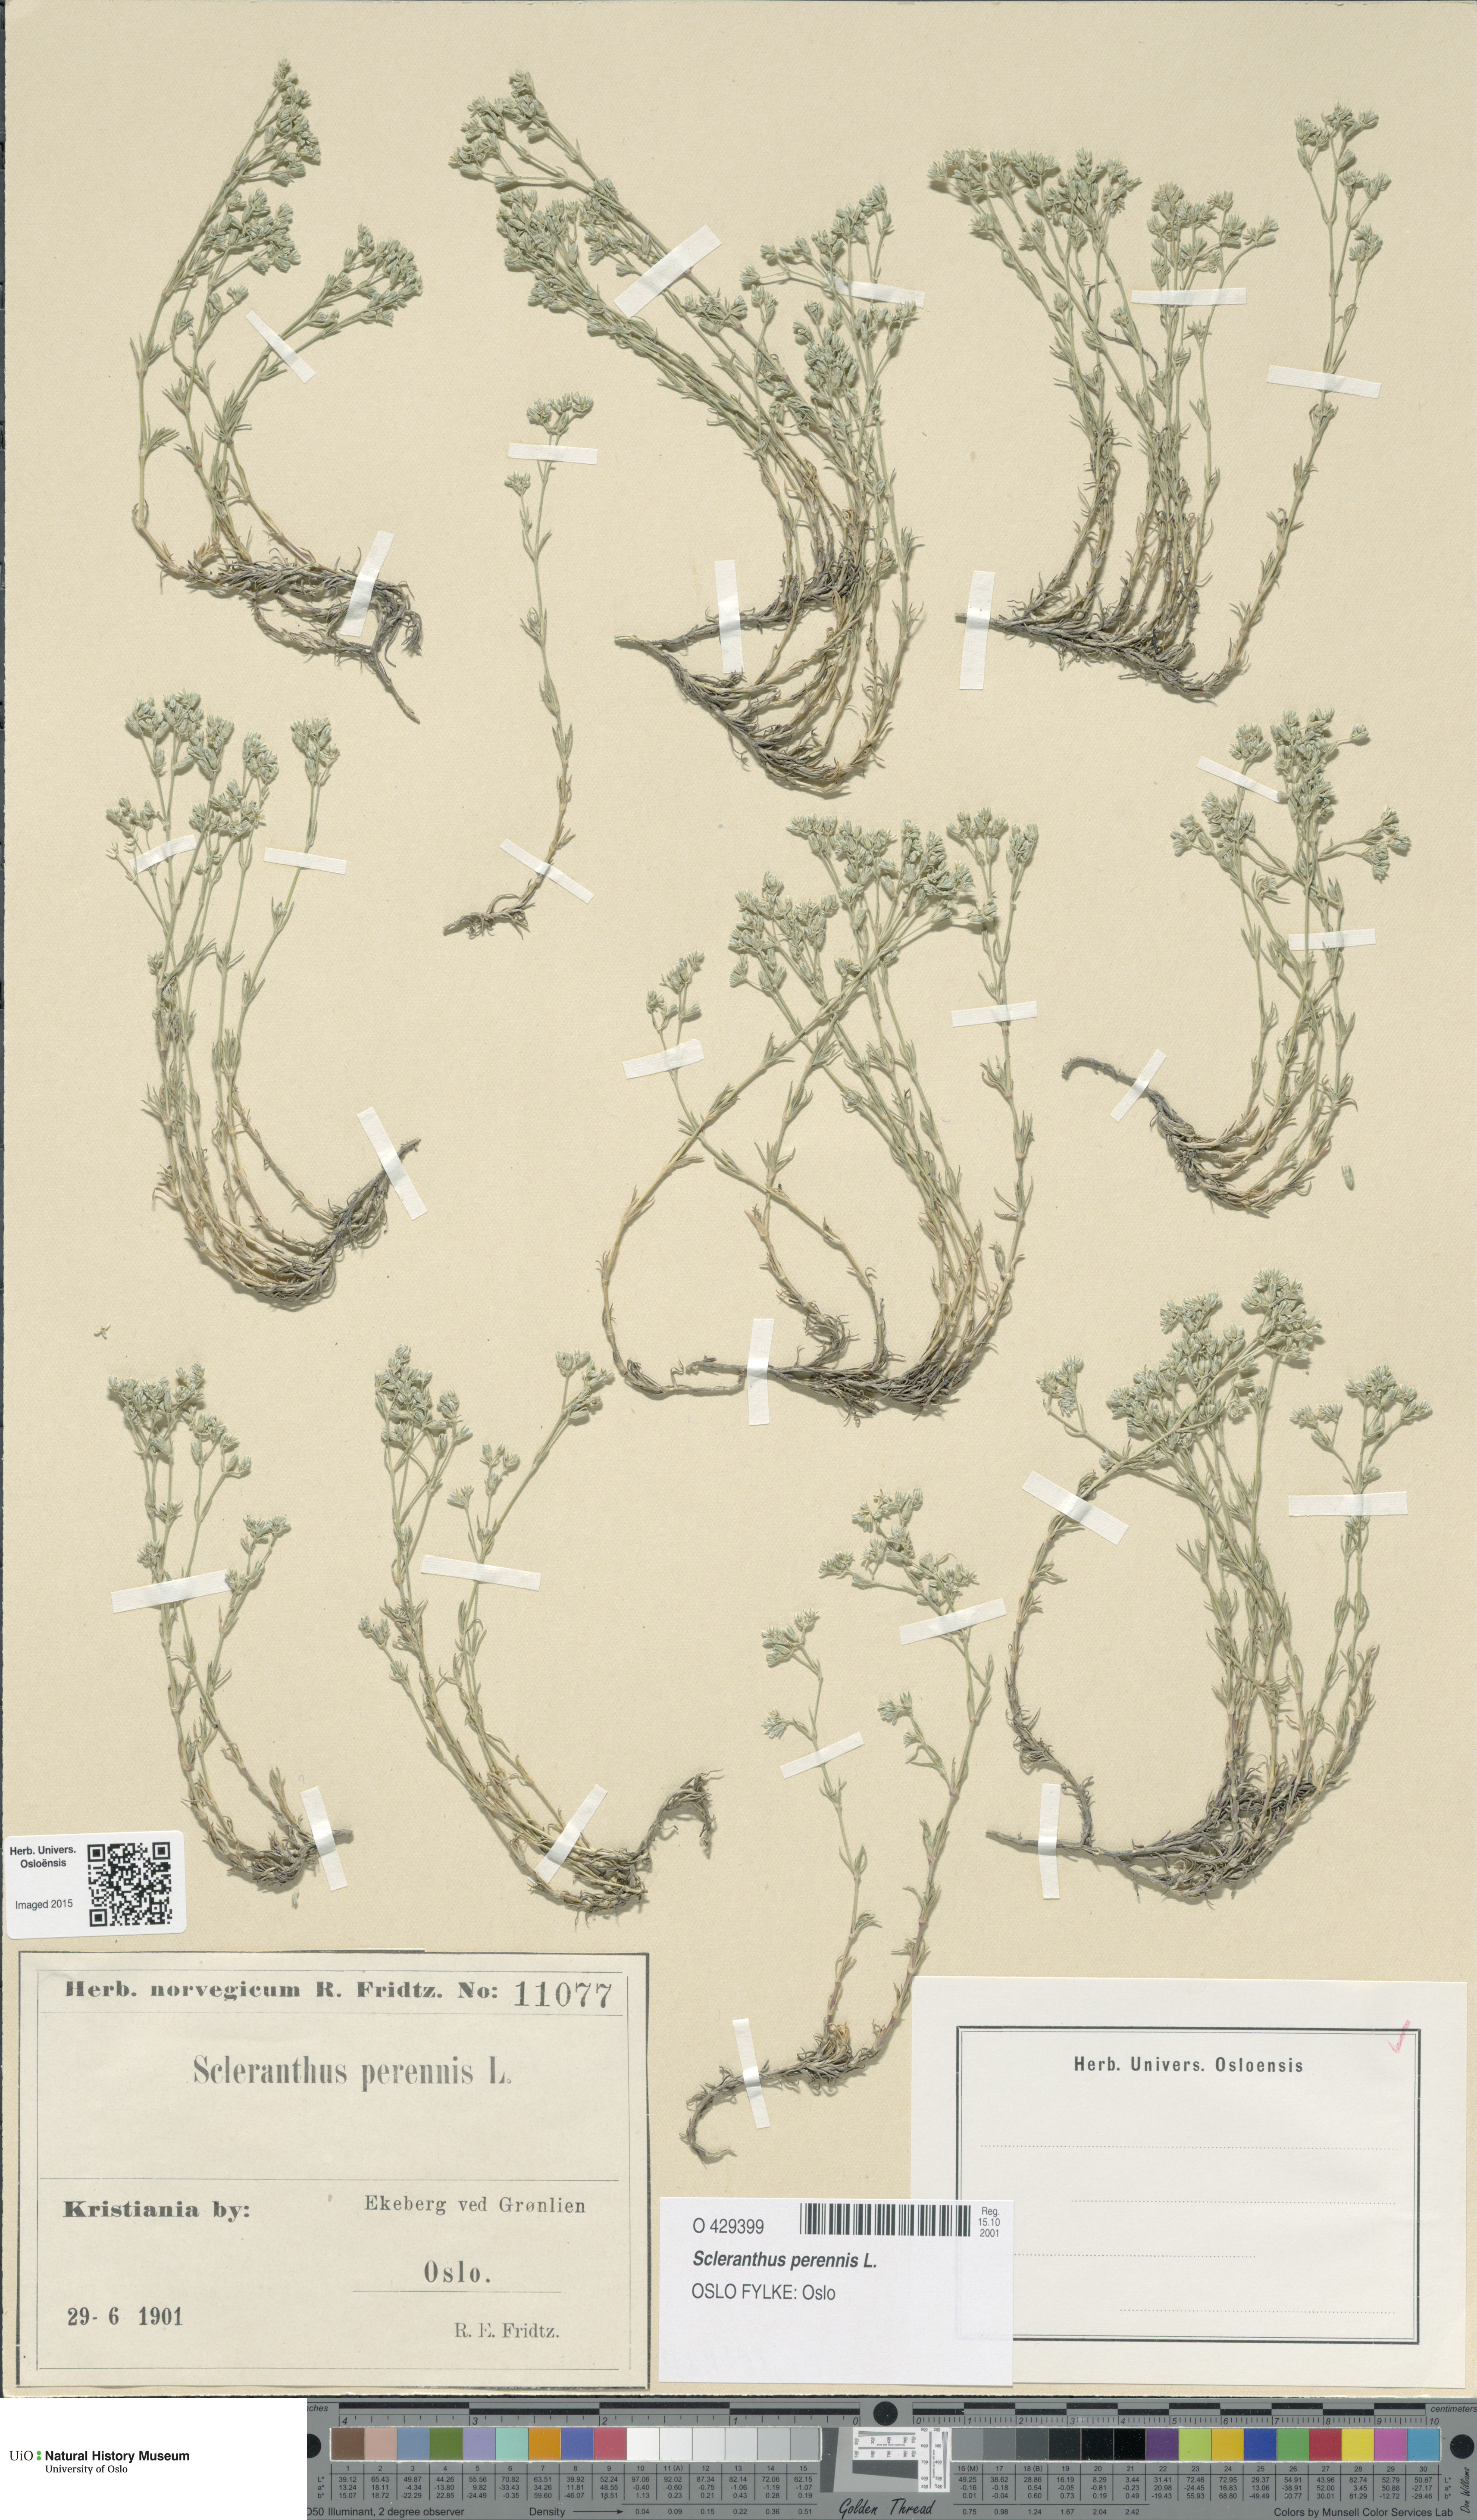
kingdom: Plantae
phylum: Tracheophyta
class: Magnoliopsida
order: Caryophyllales
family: Caryophyllaceae
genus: Scleranthus
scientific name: Scleranthus perennis
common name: Perennial knawel
